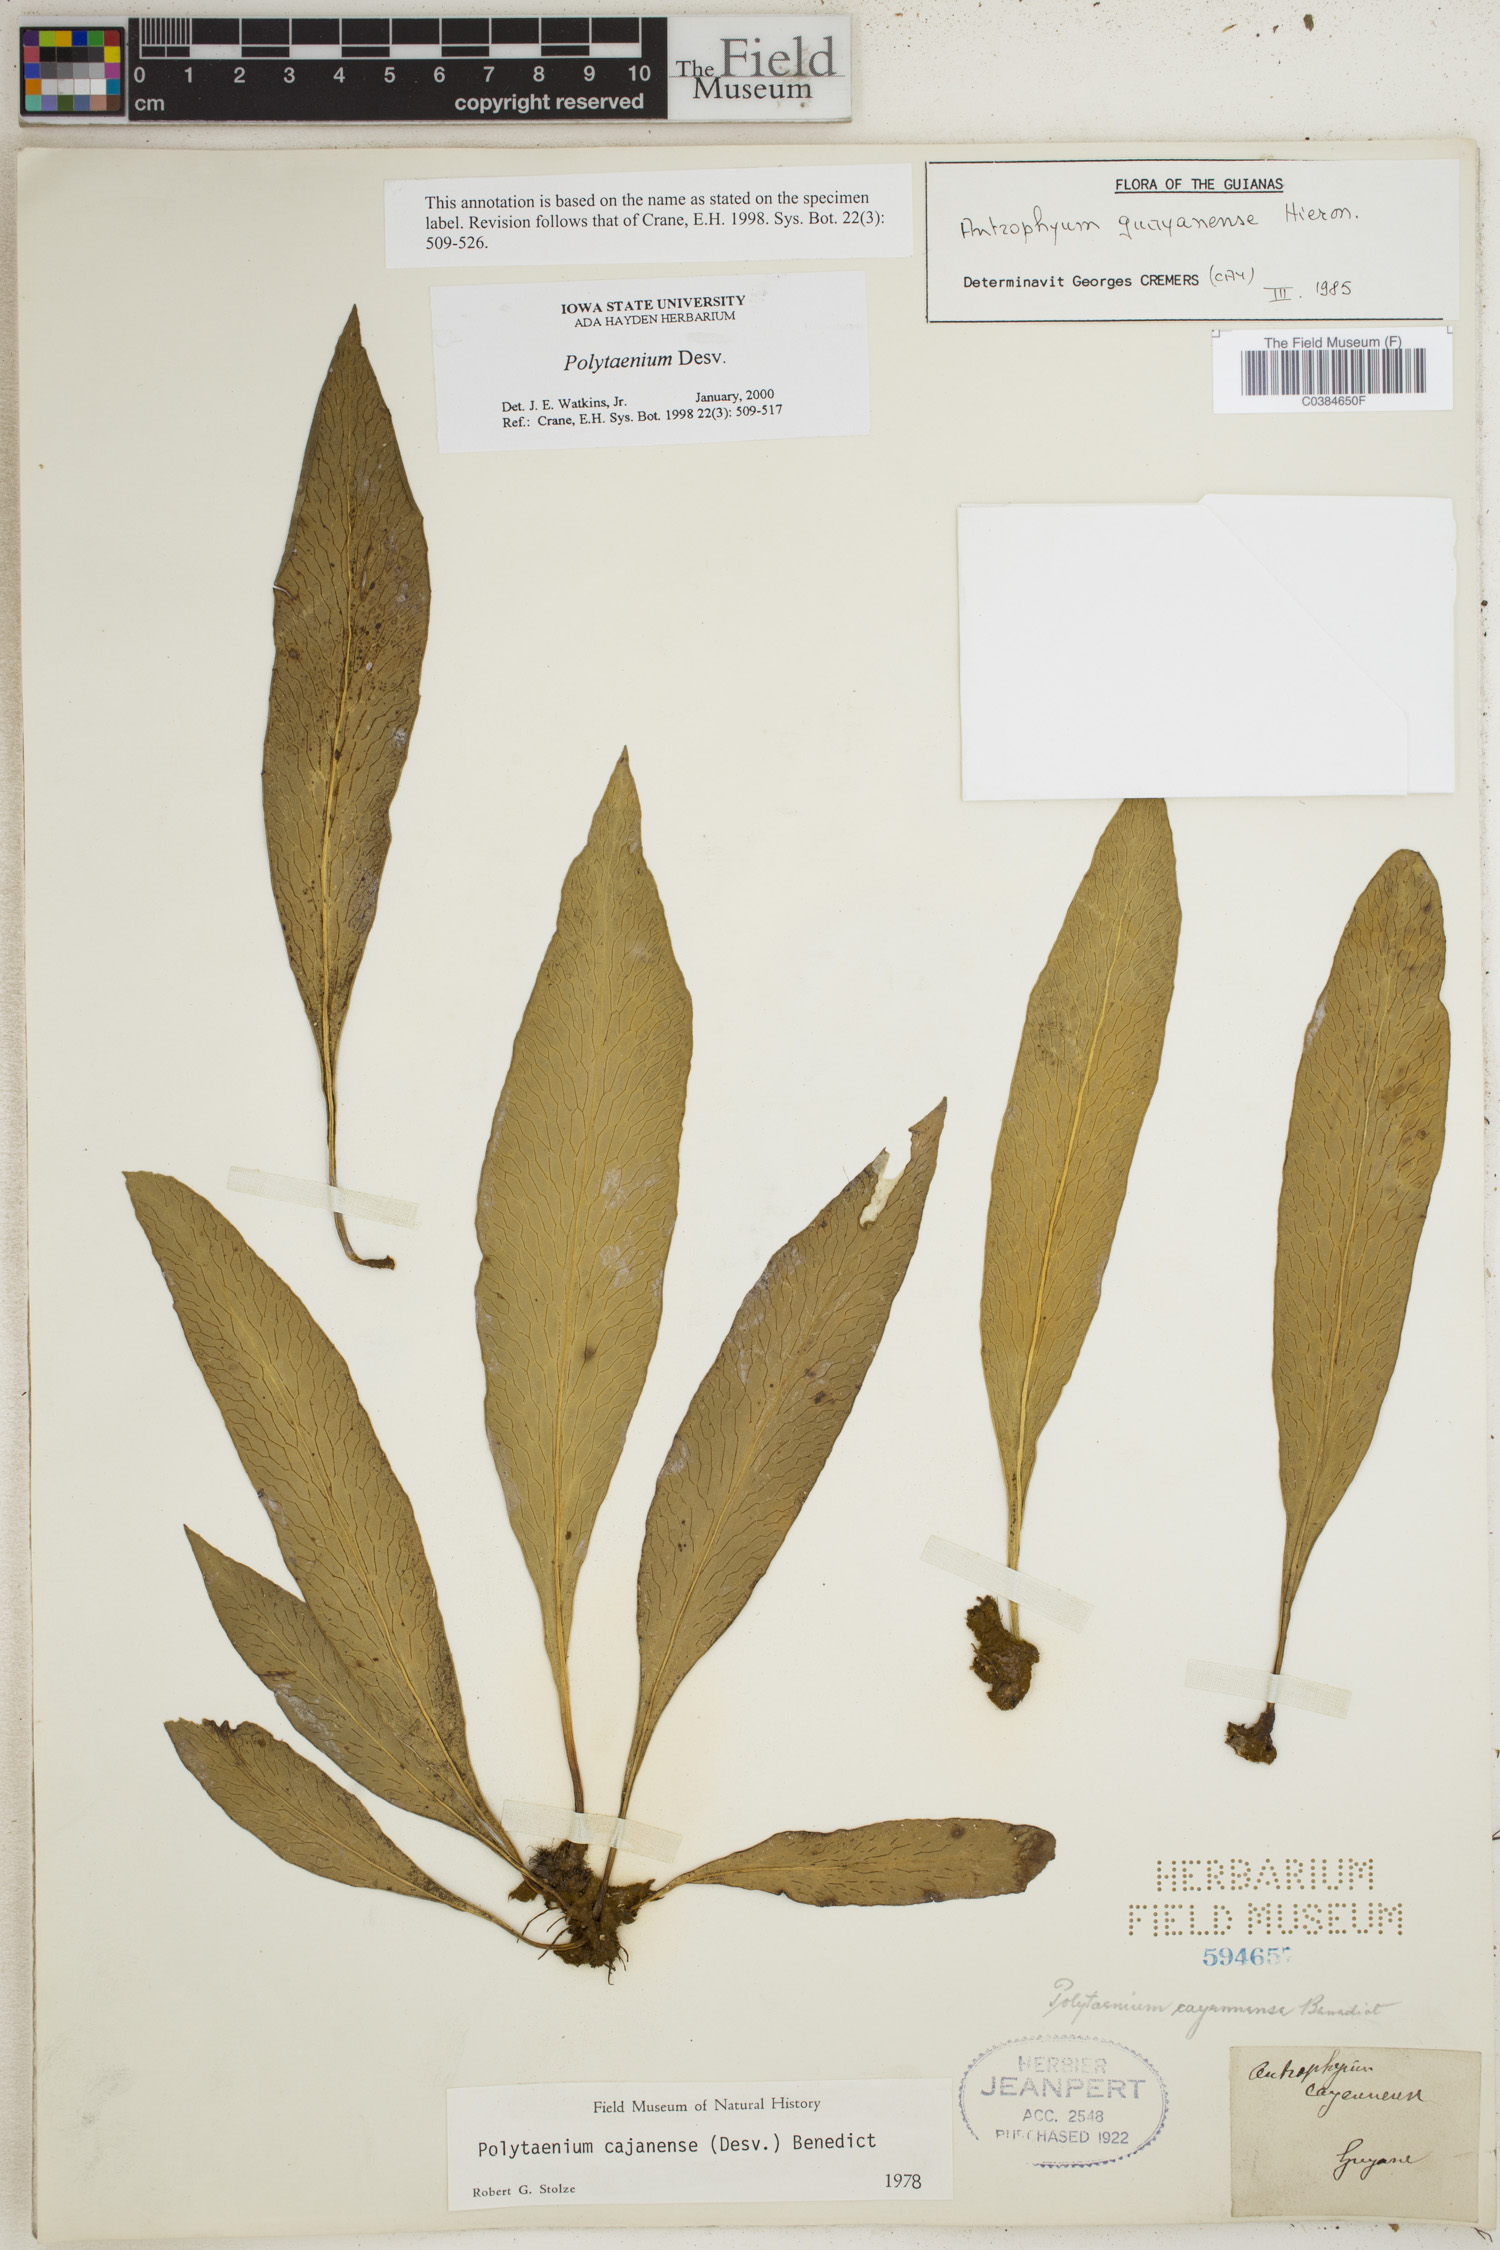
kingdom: Plantae
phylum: Tracheophyta
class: Polypodiopsida
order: Polypodiales
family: Pteridaceae
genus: Polytaenium
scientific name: Polytaenium
